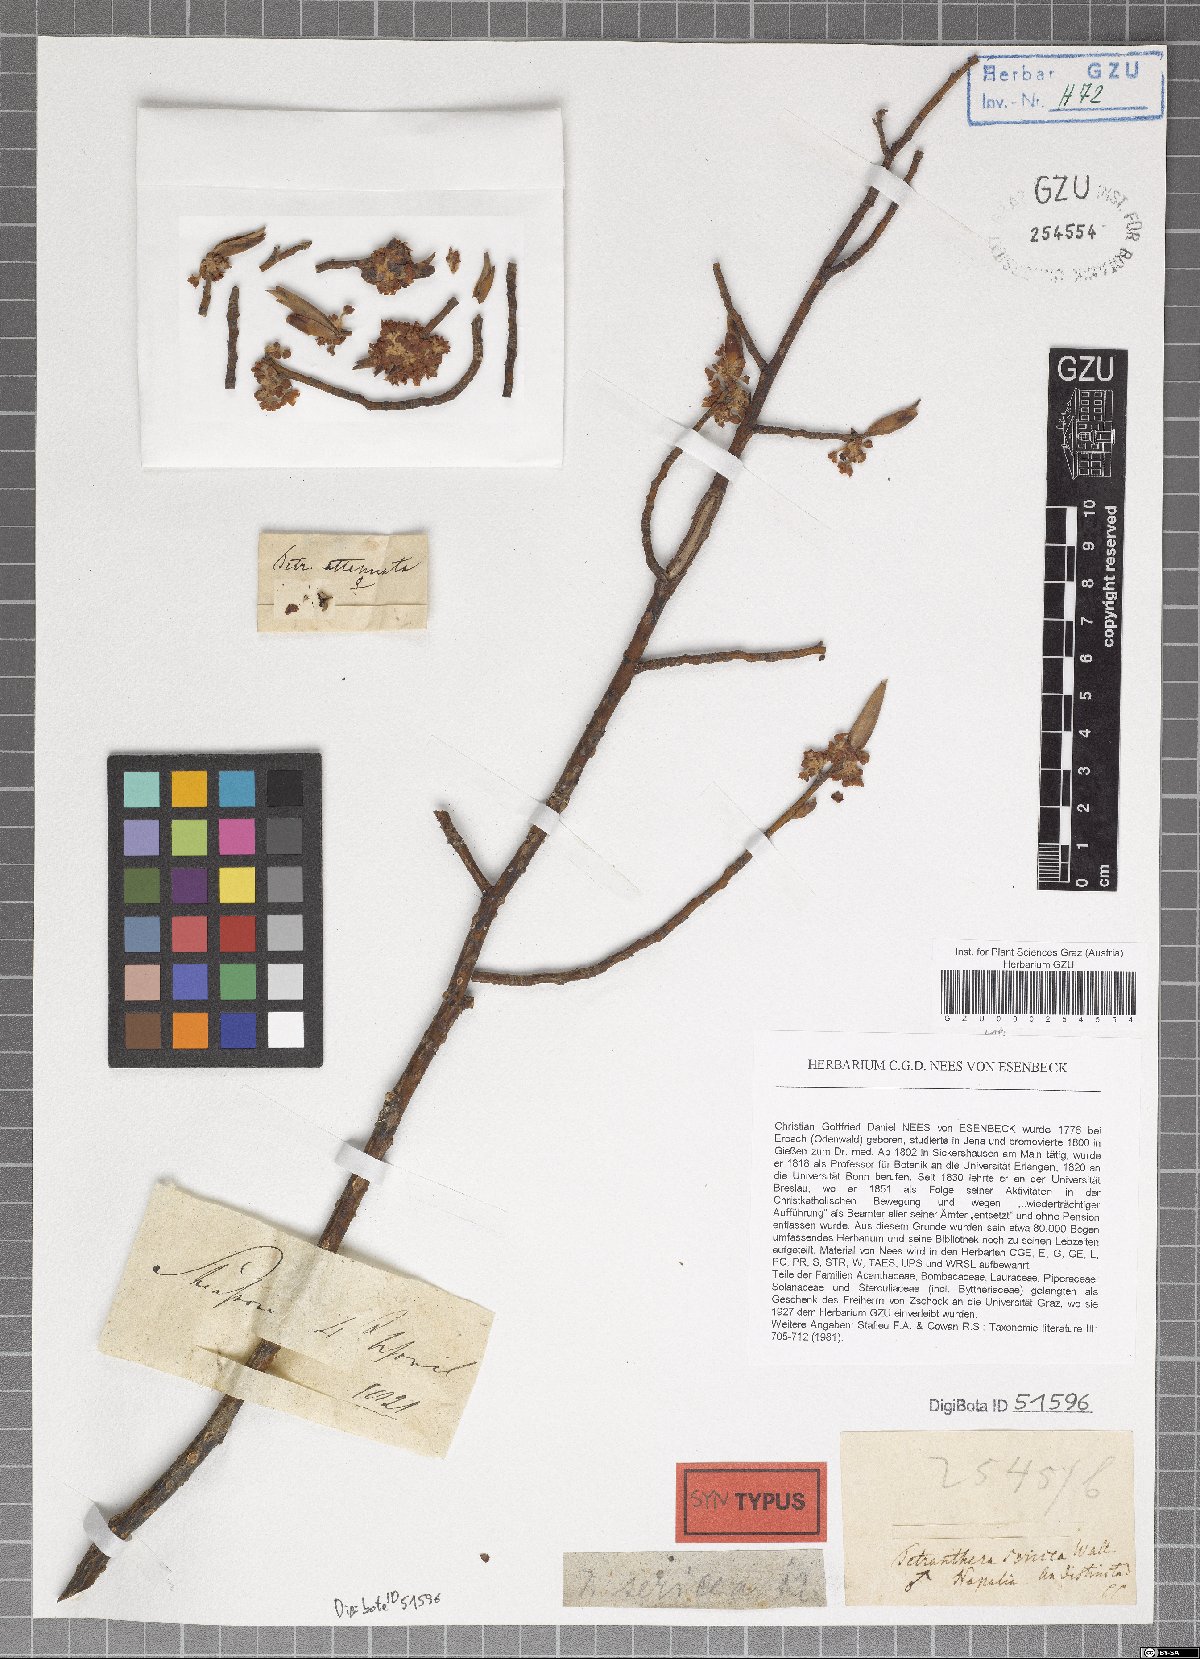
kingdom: Plantae
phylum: Tracheophyta
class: Magnoliopsida
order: Laurales
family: Lauraceae
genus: Litsea
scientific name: Litsea sericea
